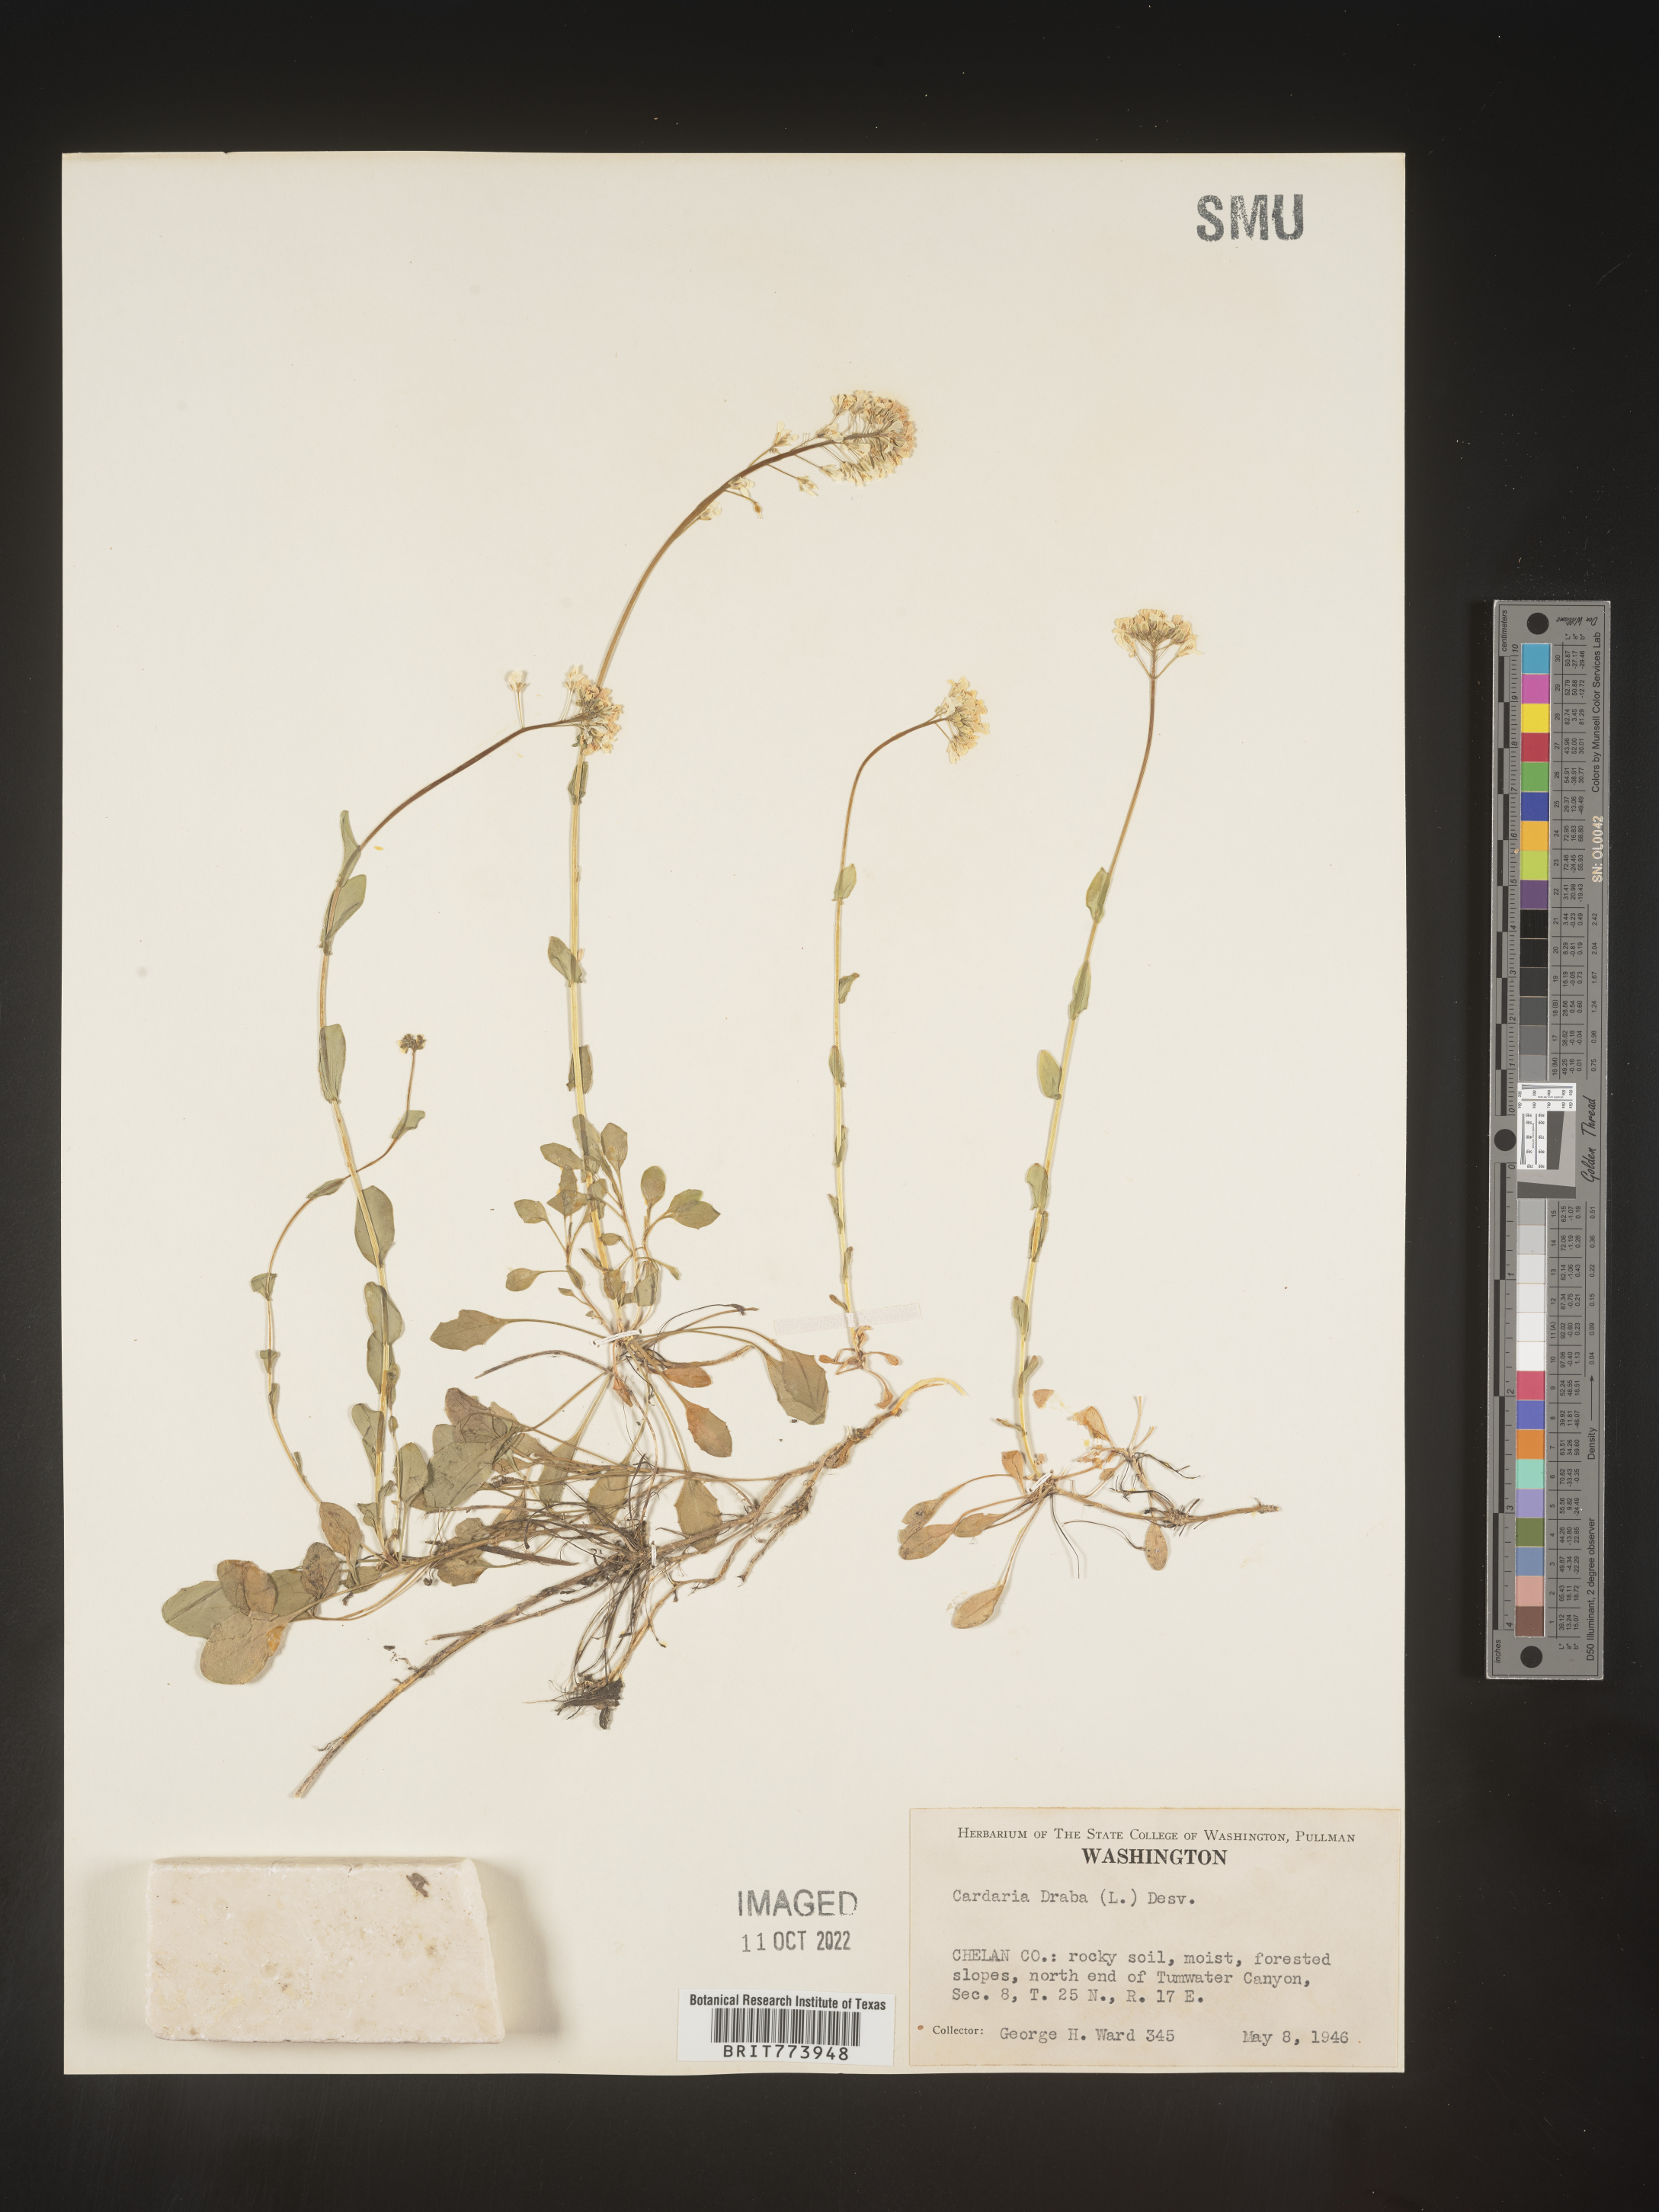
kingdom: Plantae
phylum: Tracheophyta
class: Magnoliopsida
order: Brassicales
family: Brassicaceae
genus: Lepidium
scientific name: Lepidium draba
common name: Hoary cress
